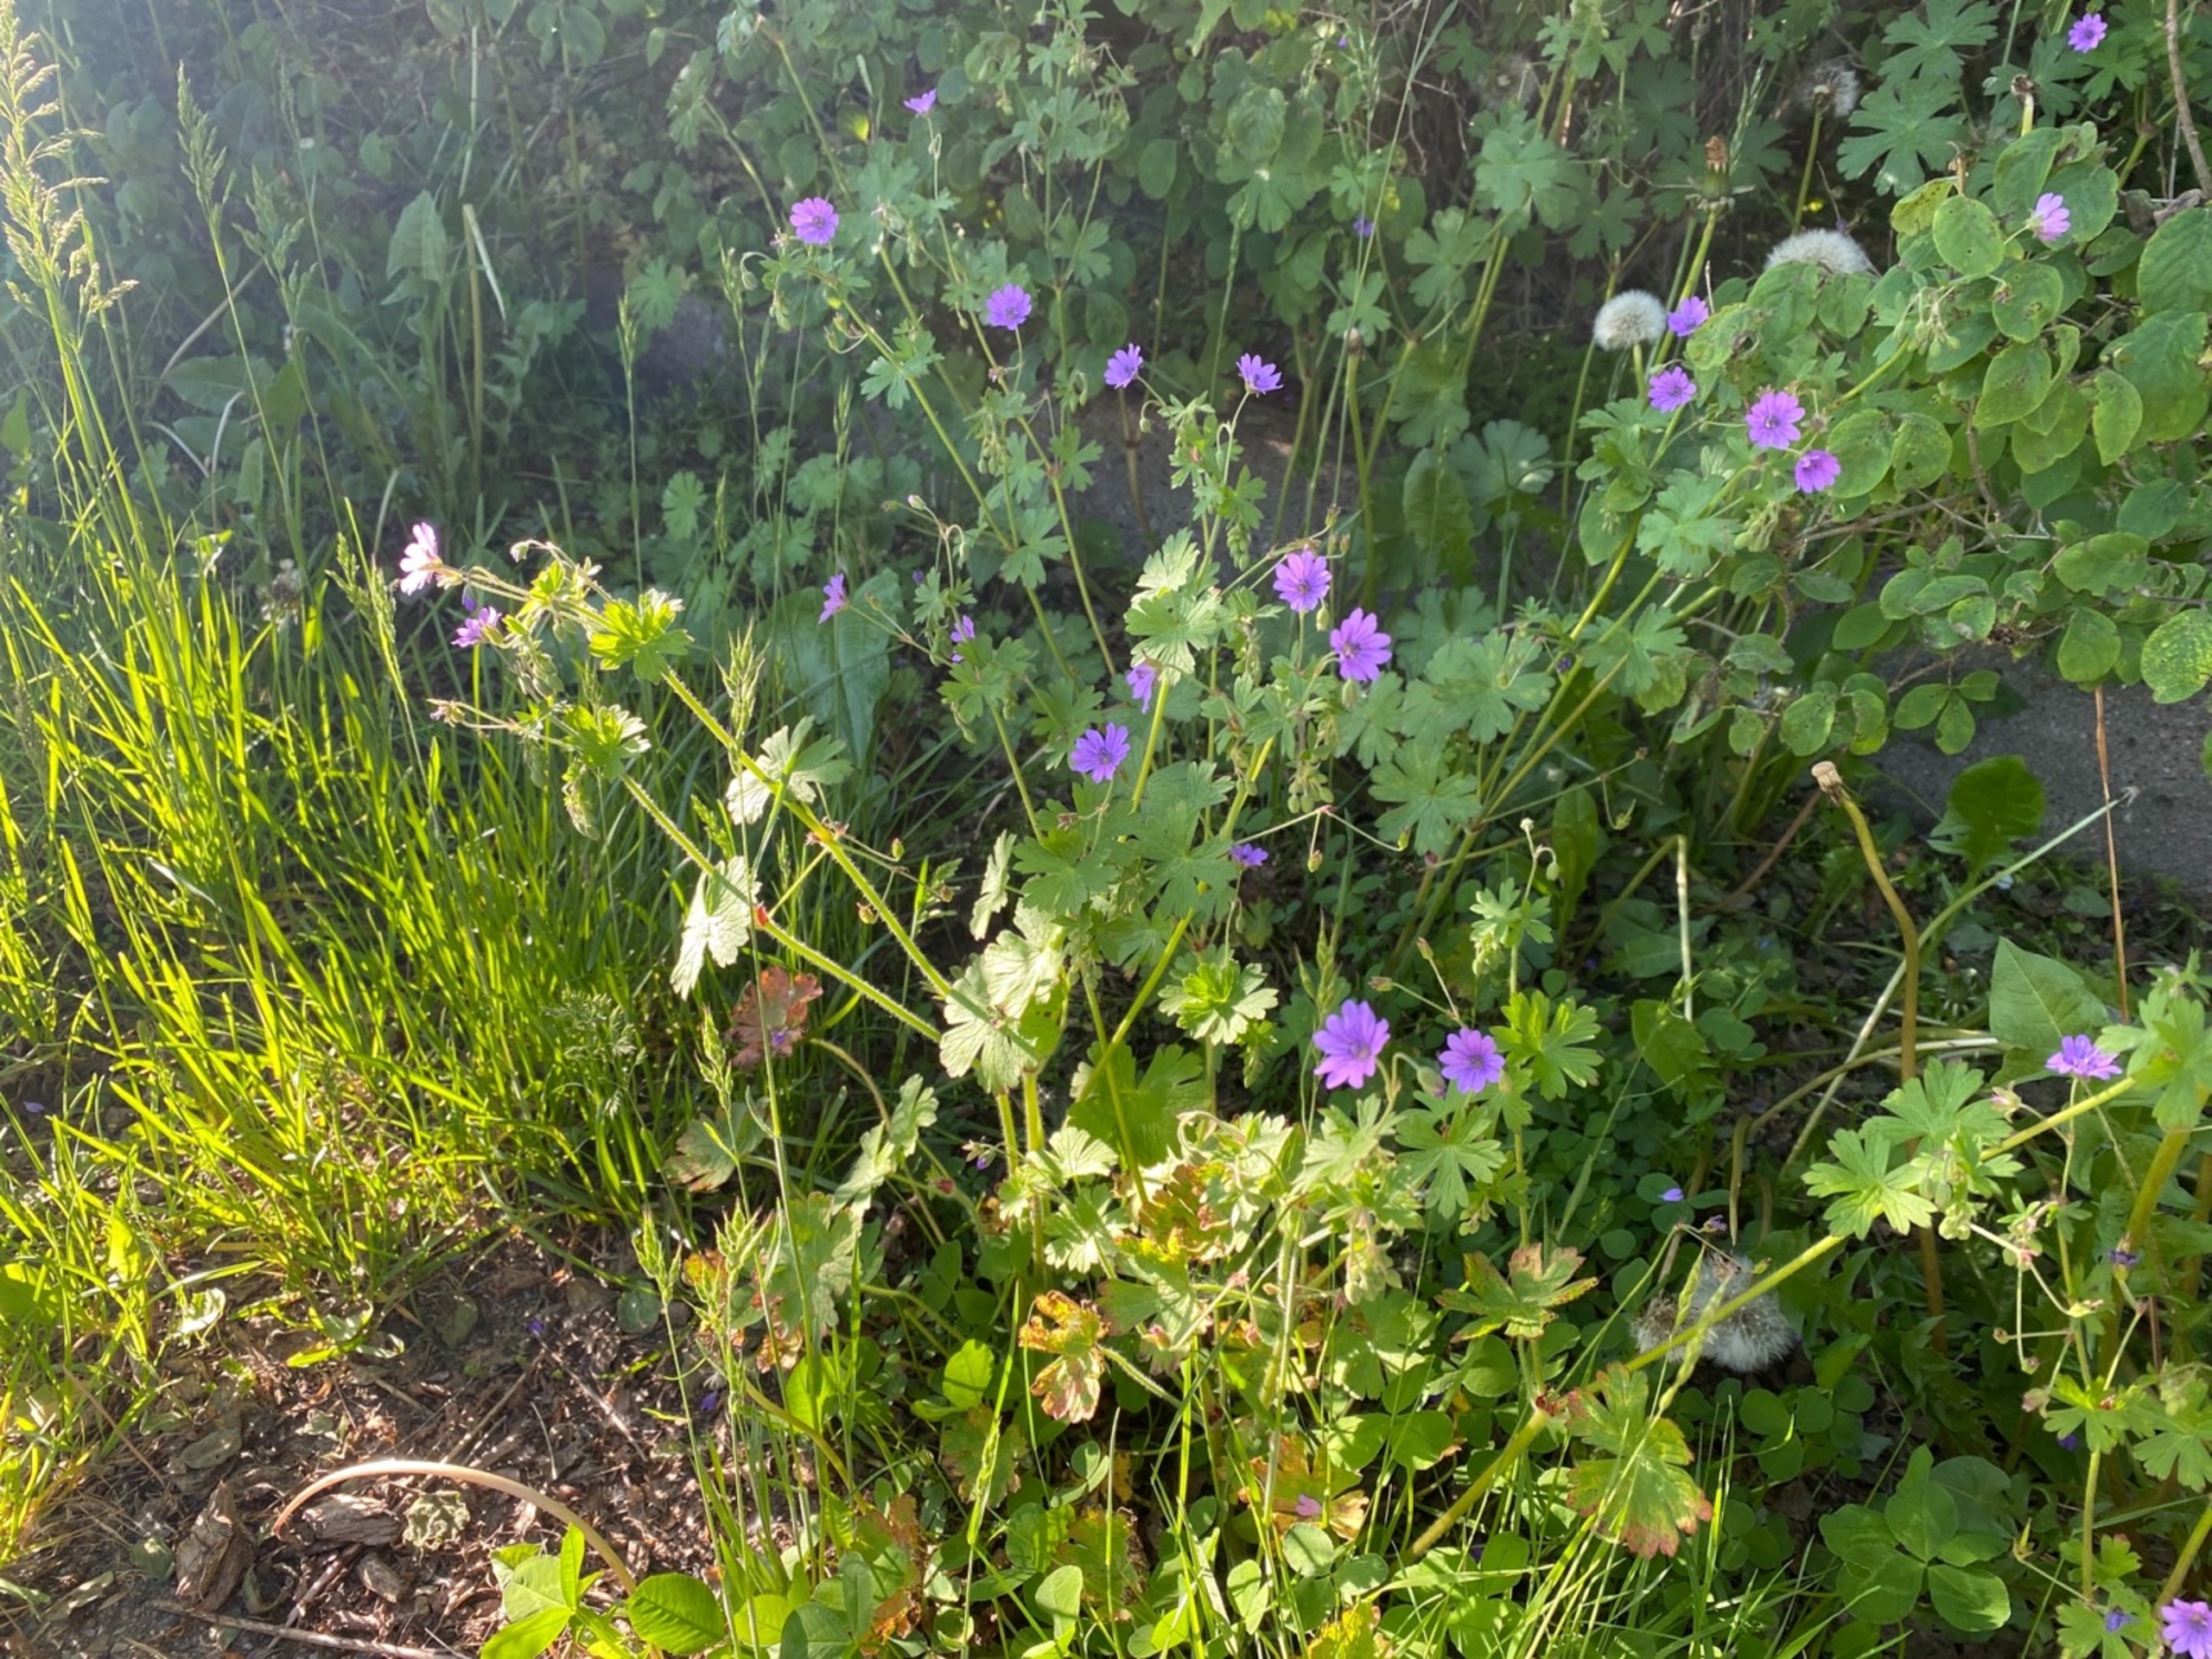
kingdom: Plantae
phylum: Tracheophyta
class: Magnoliopsida
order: Geraniales
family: Geraniaceae
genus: Geranium
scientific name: Geranium pyrenaicum
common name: Pyrenæisk storkenæb
